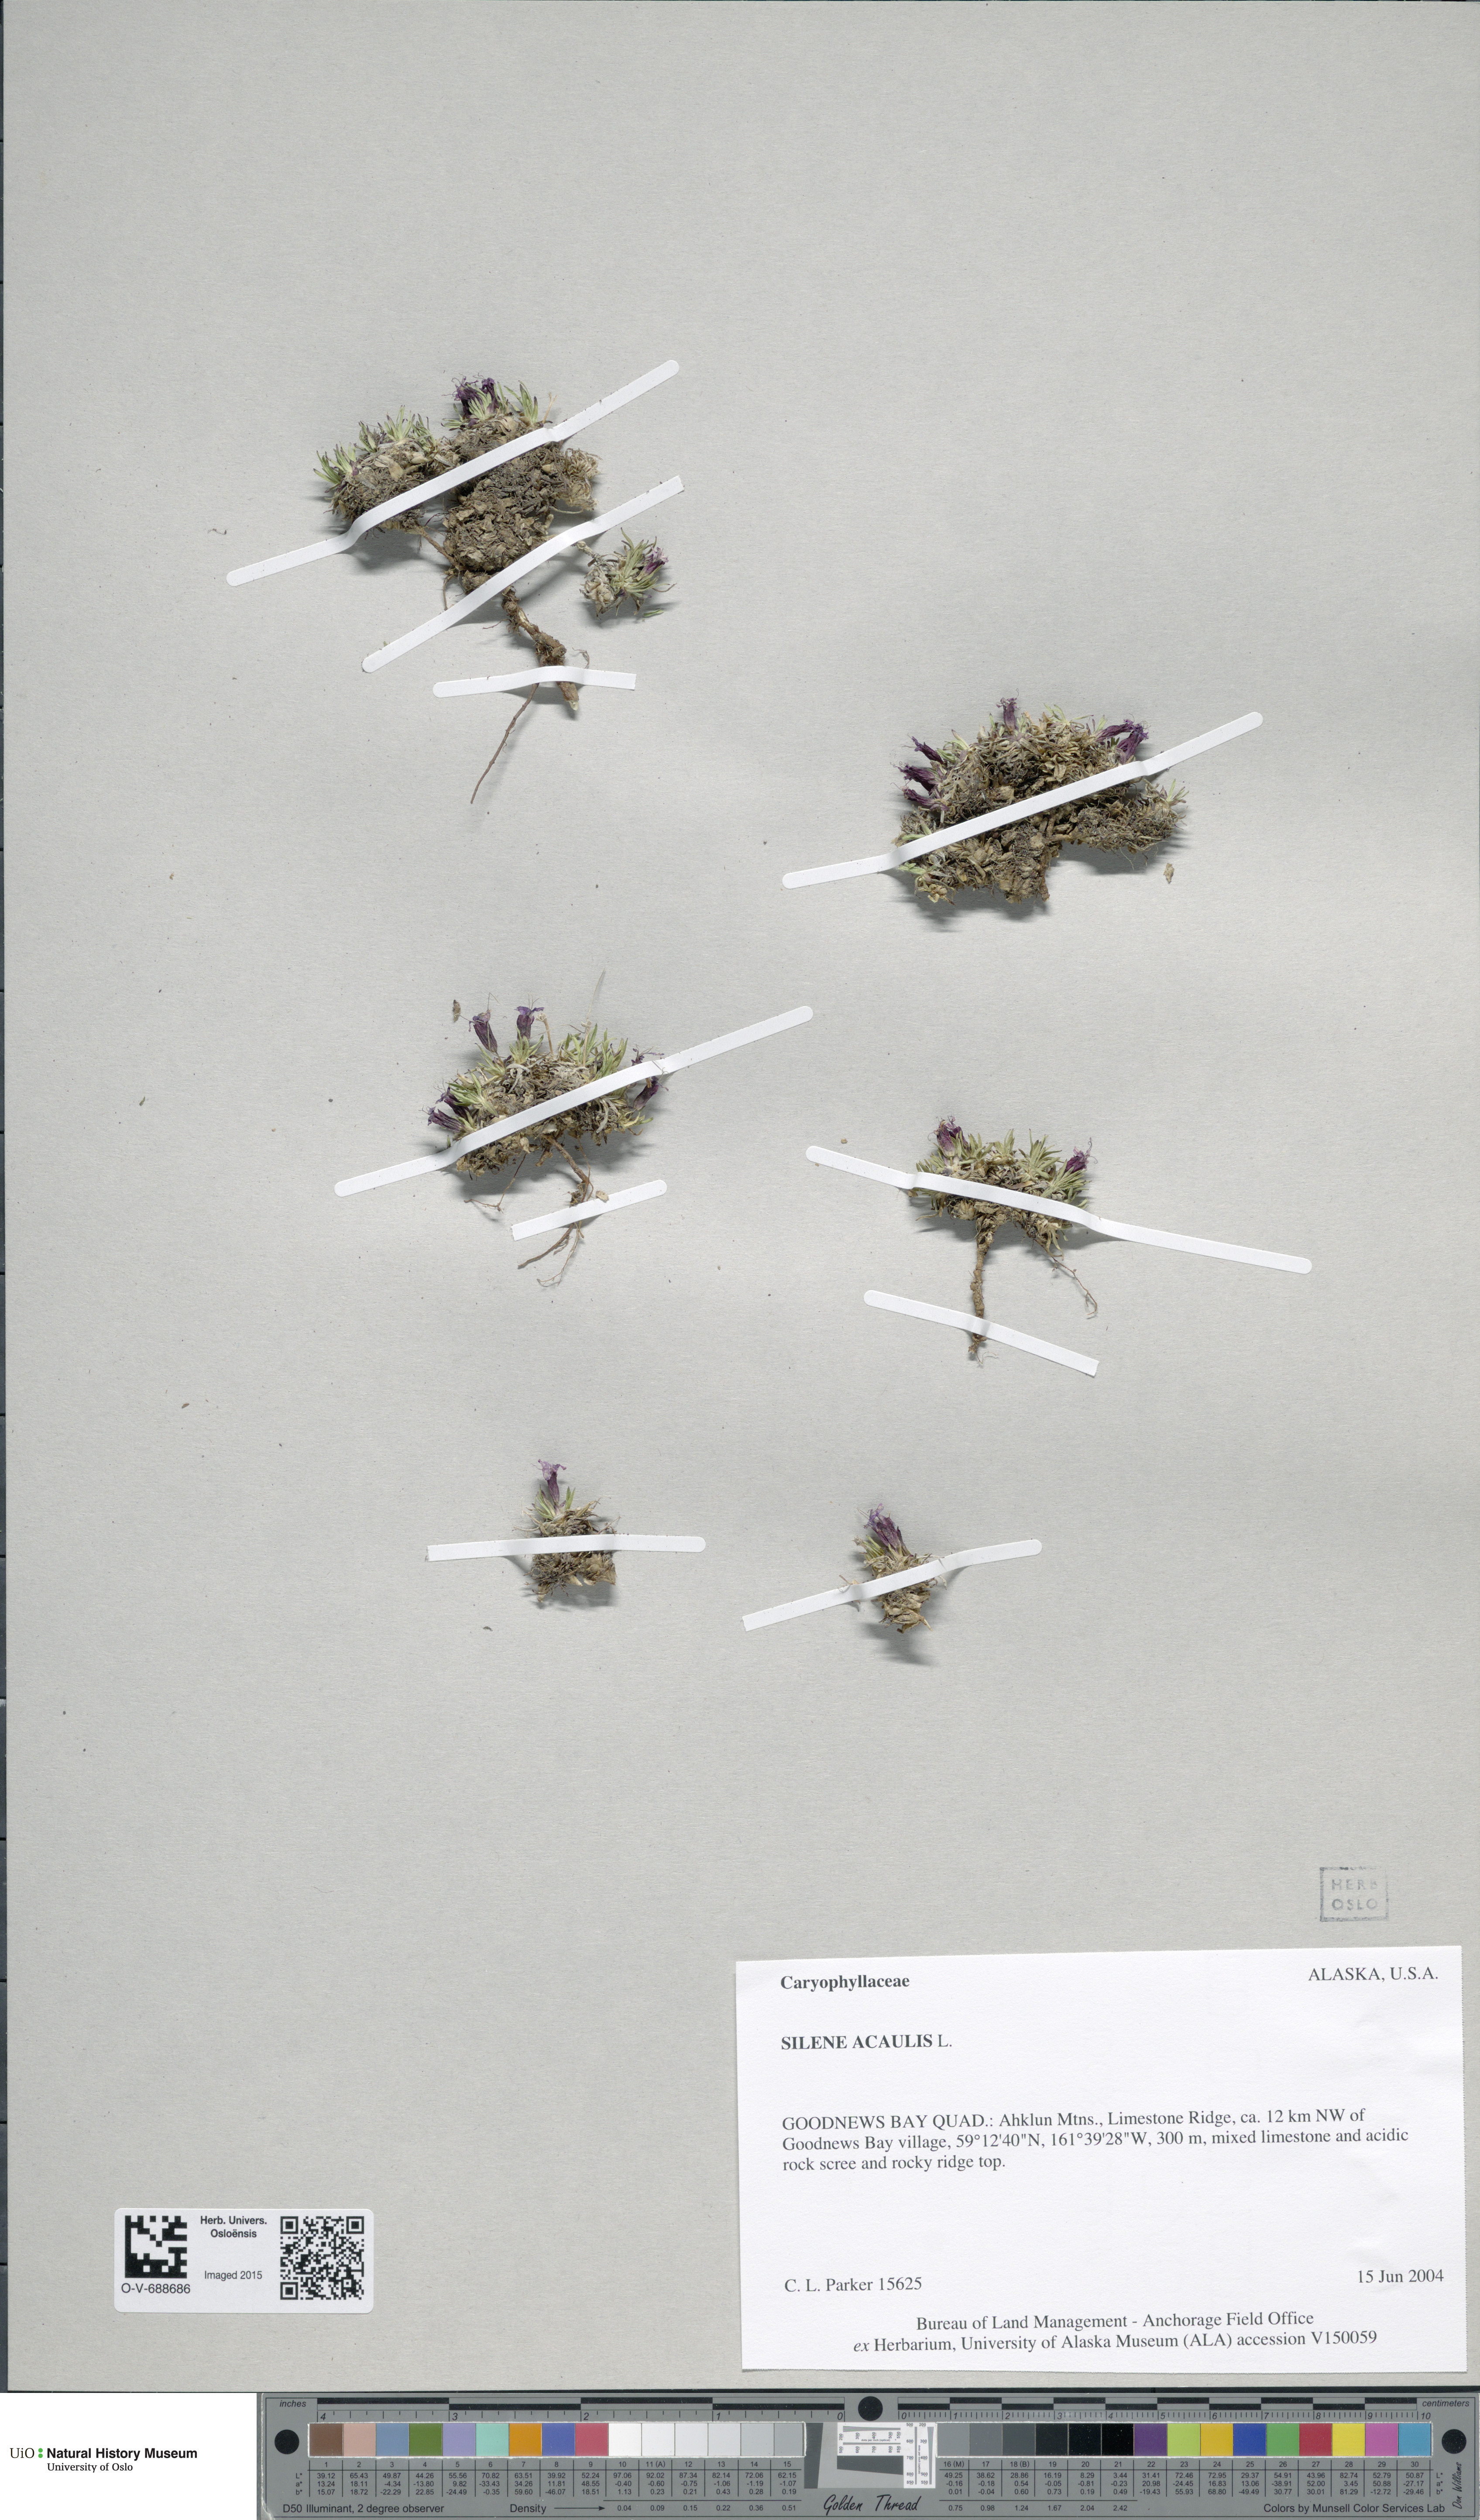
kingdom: Plantae
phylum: Tracheophyta
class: Magnoliopsida
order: Caryophyllales
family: Caryophyllaceae
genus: Silene
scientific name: Silene acaulis
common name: Moss campion
